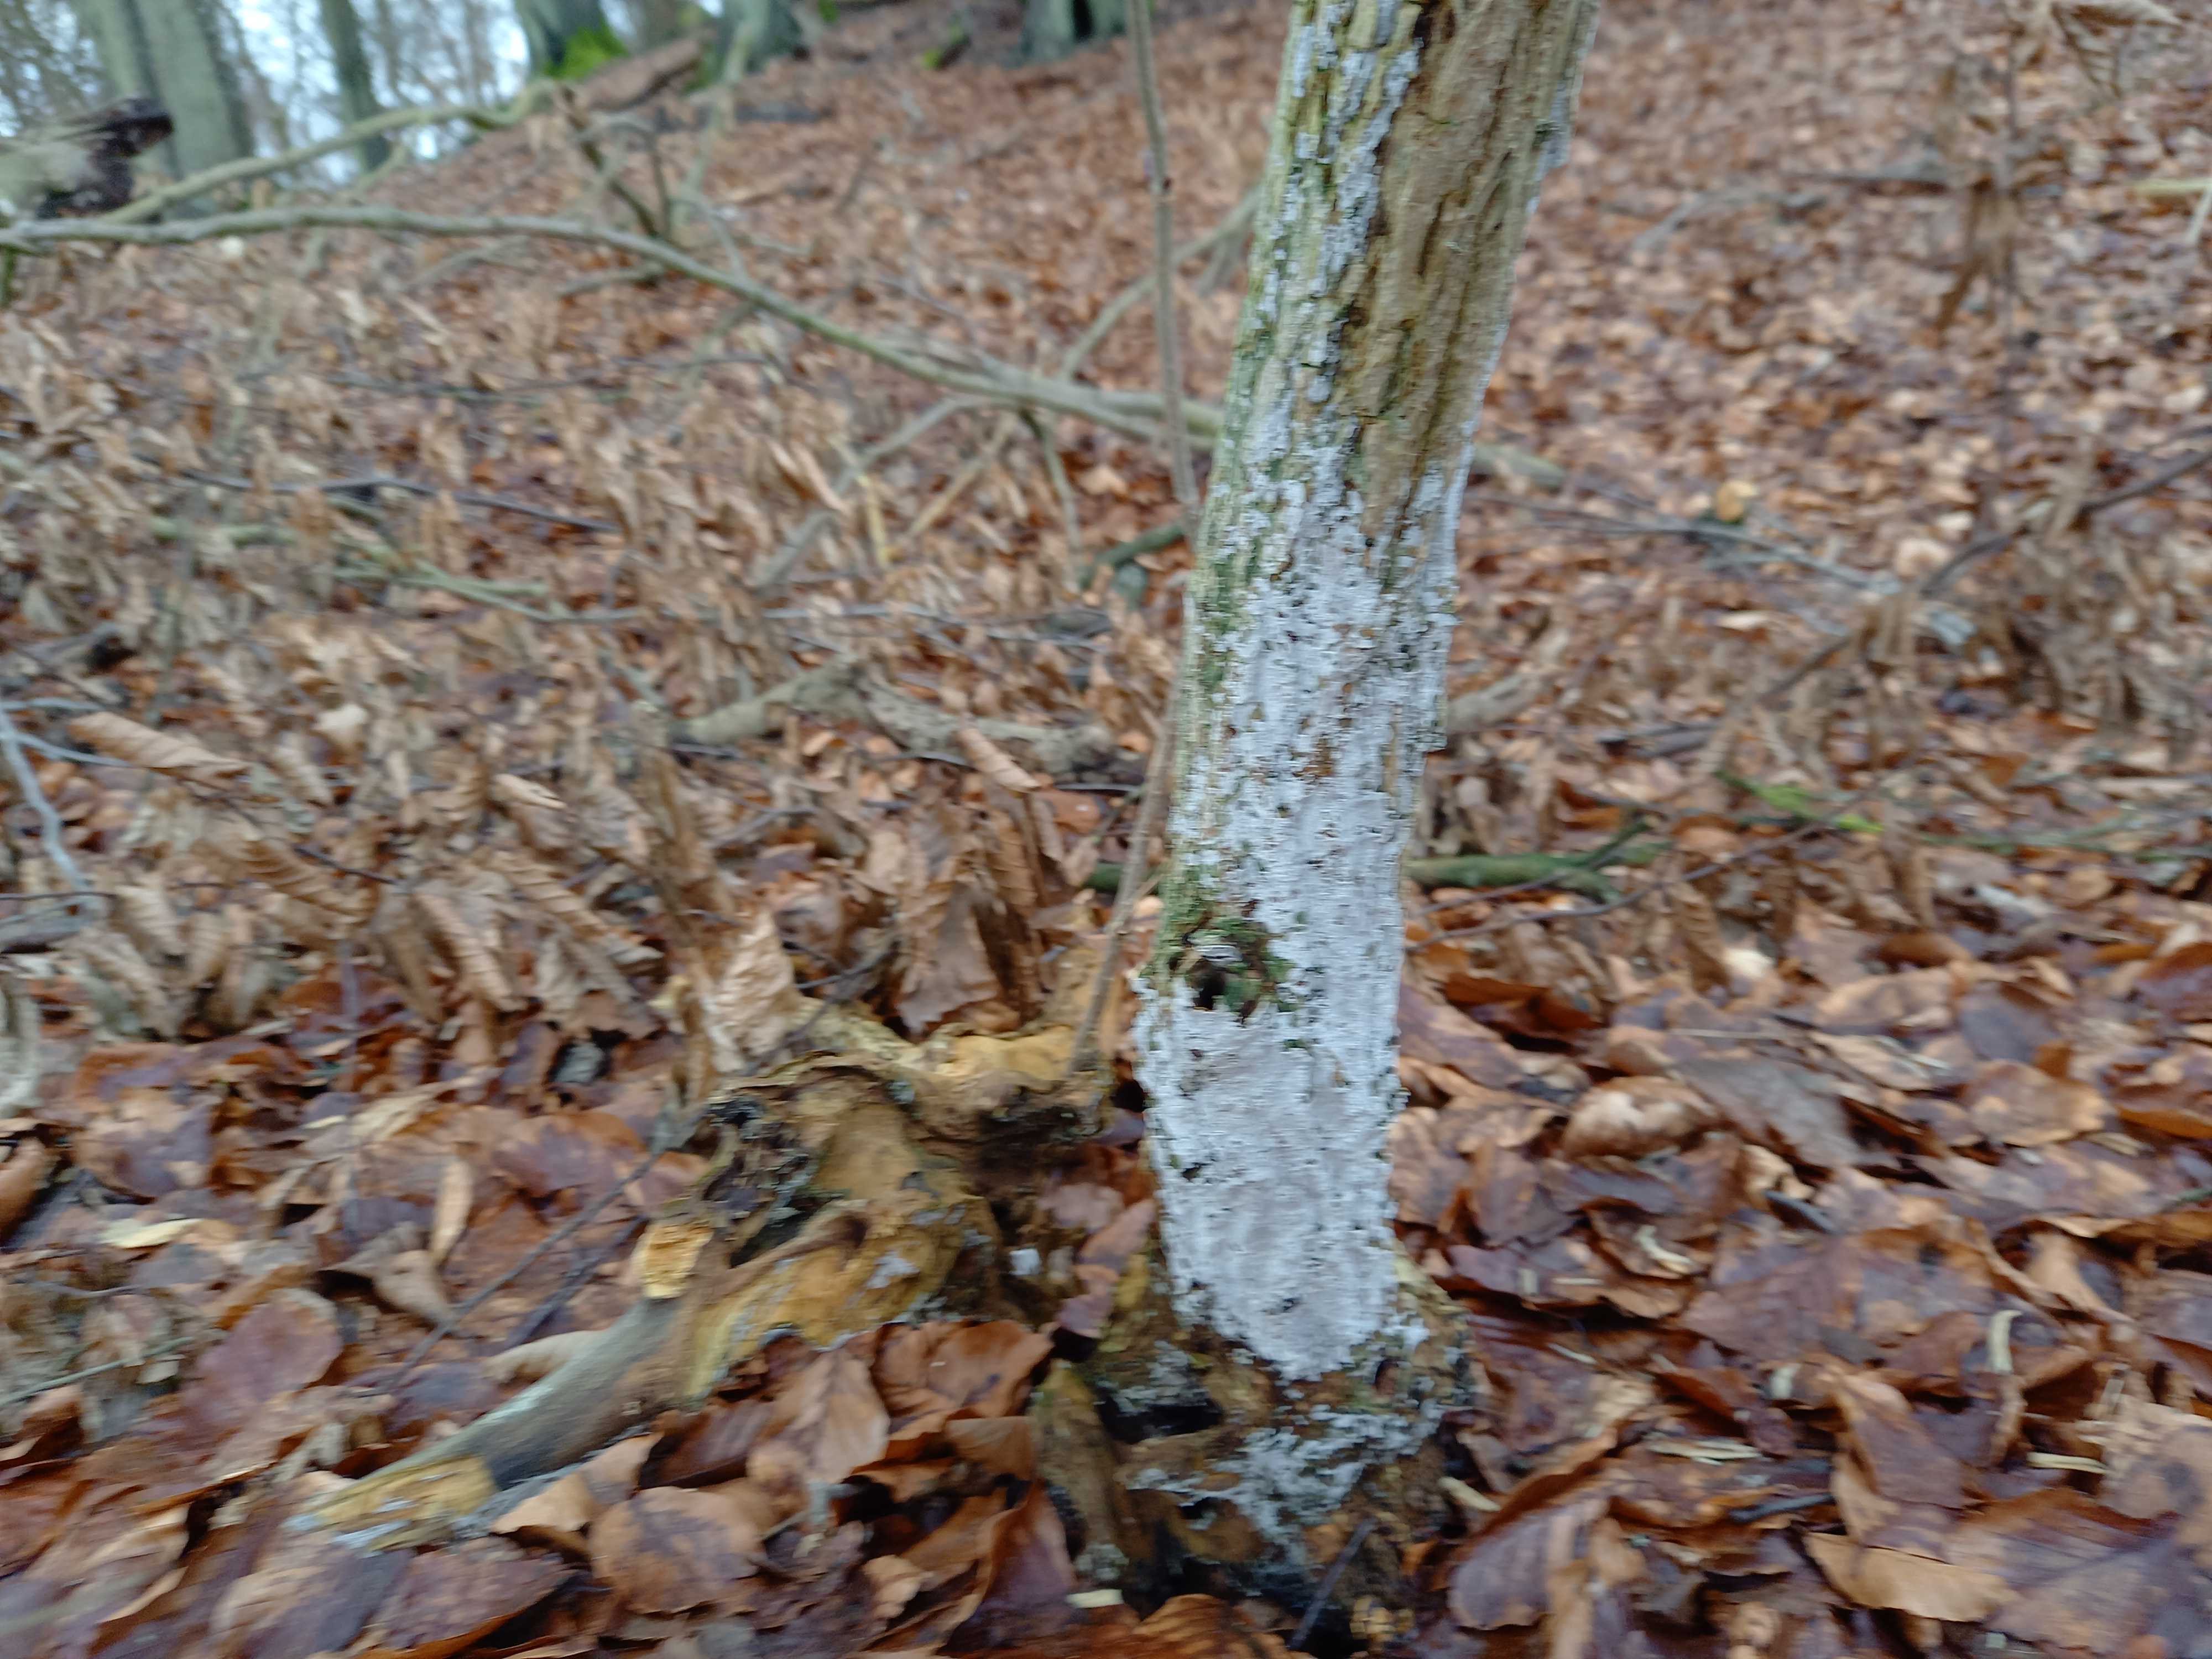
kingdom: Fungi
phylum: Basidiomycota
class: Agaricomycetes
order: Corticiales
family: Corticiaceae
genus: Lyomyces
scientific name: Lyomyces sambuci
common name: almindelig hyldehinde
